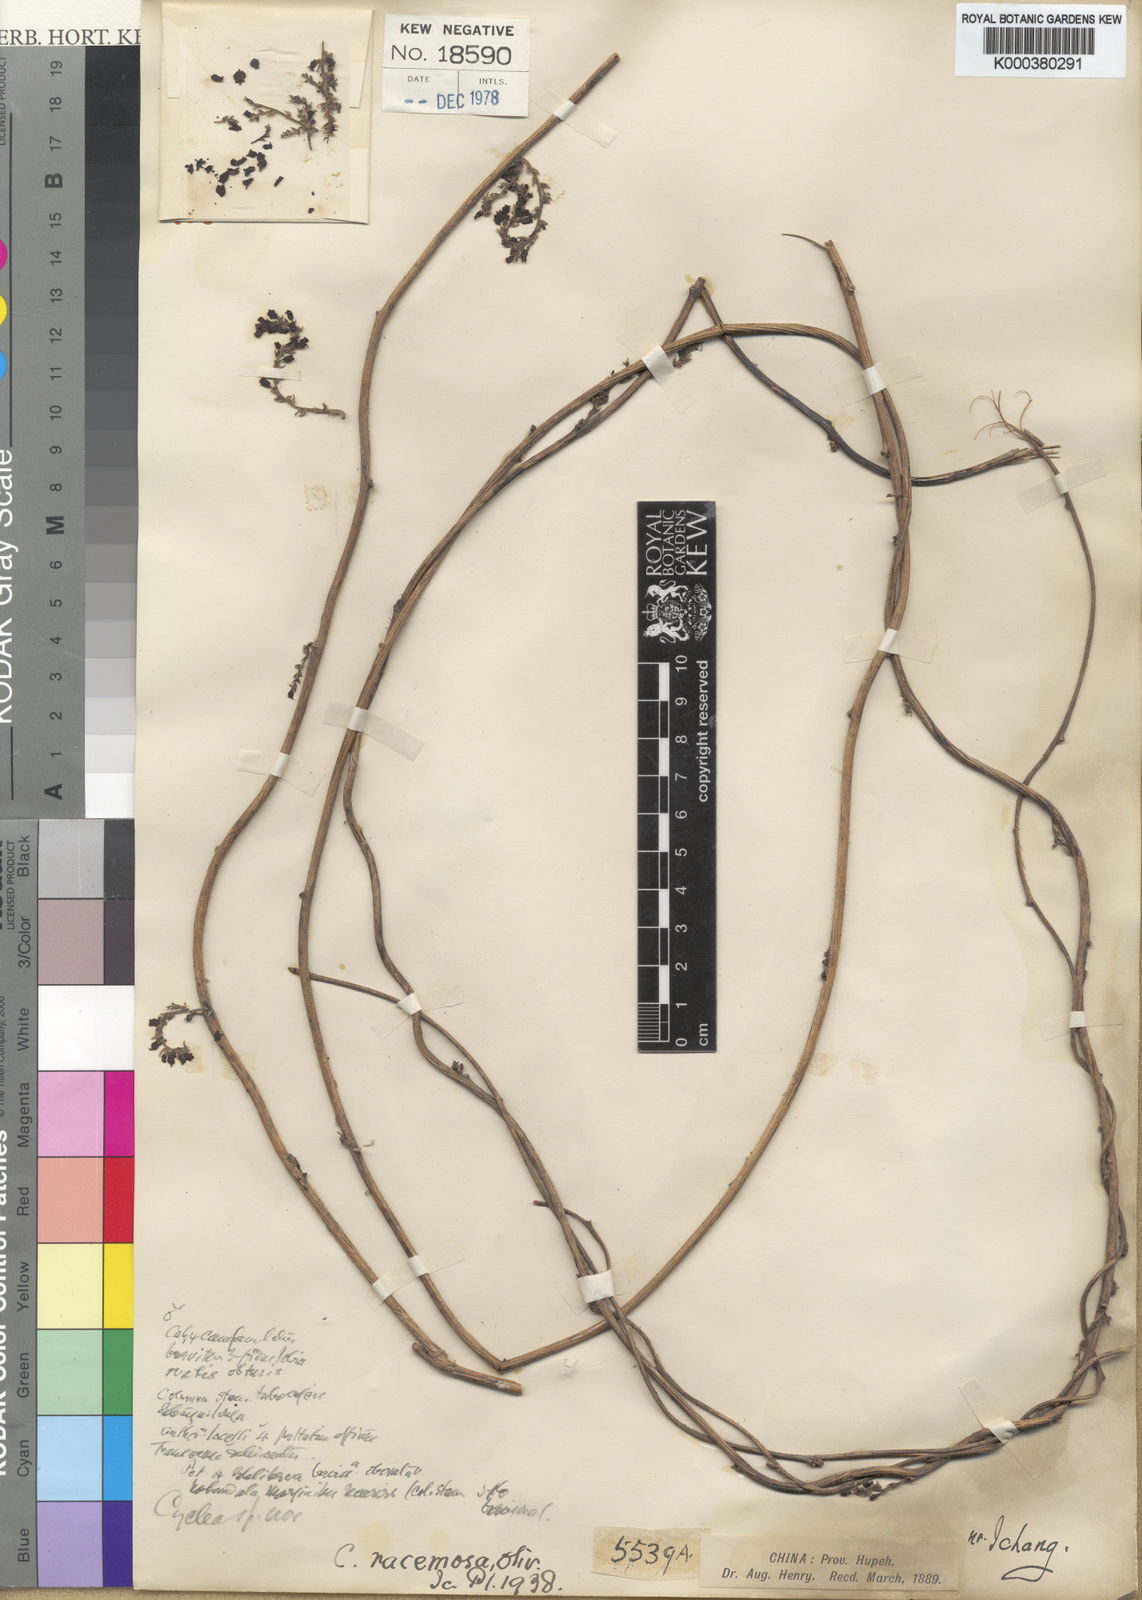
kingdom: Plantae
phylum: Tracheophyta
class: Magnoliopsida
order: Ranunculales
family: Menispermaceae
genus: Cyclea
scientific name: Cyclea racemosa
